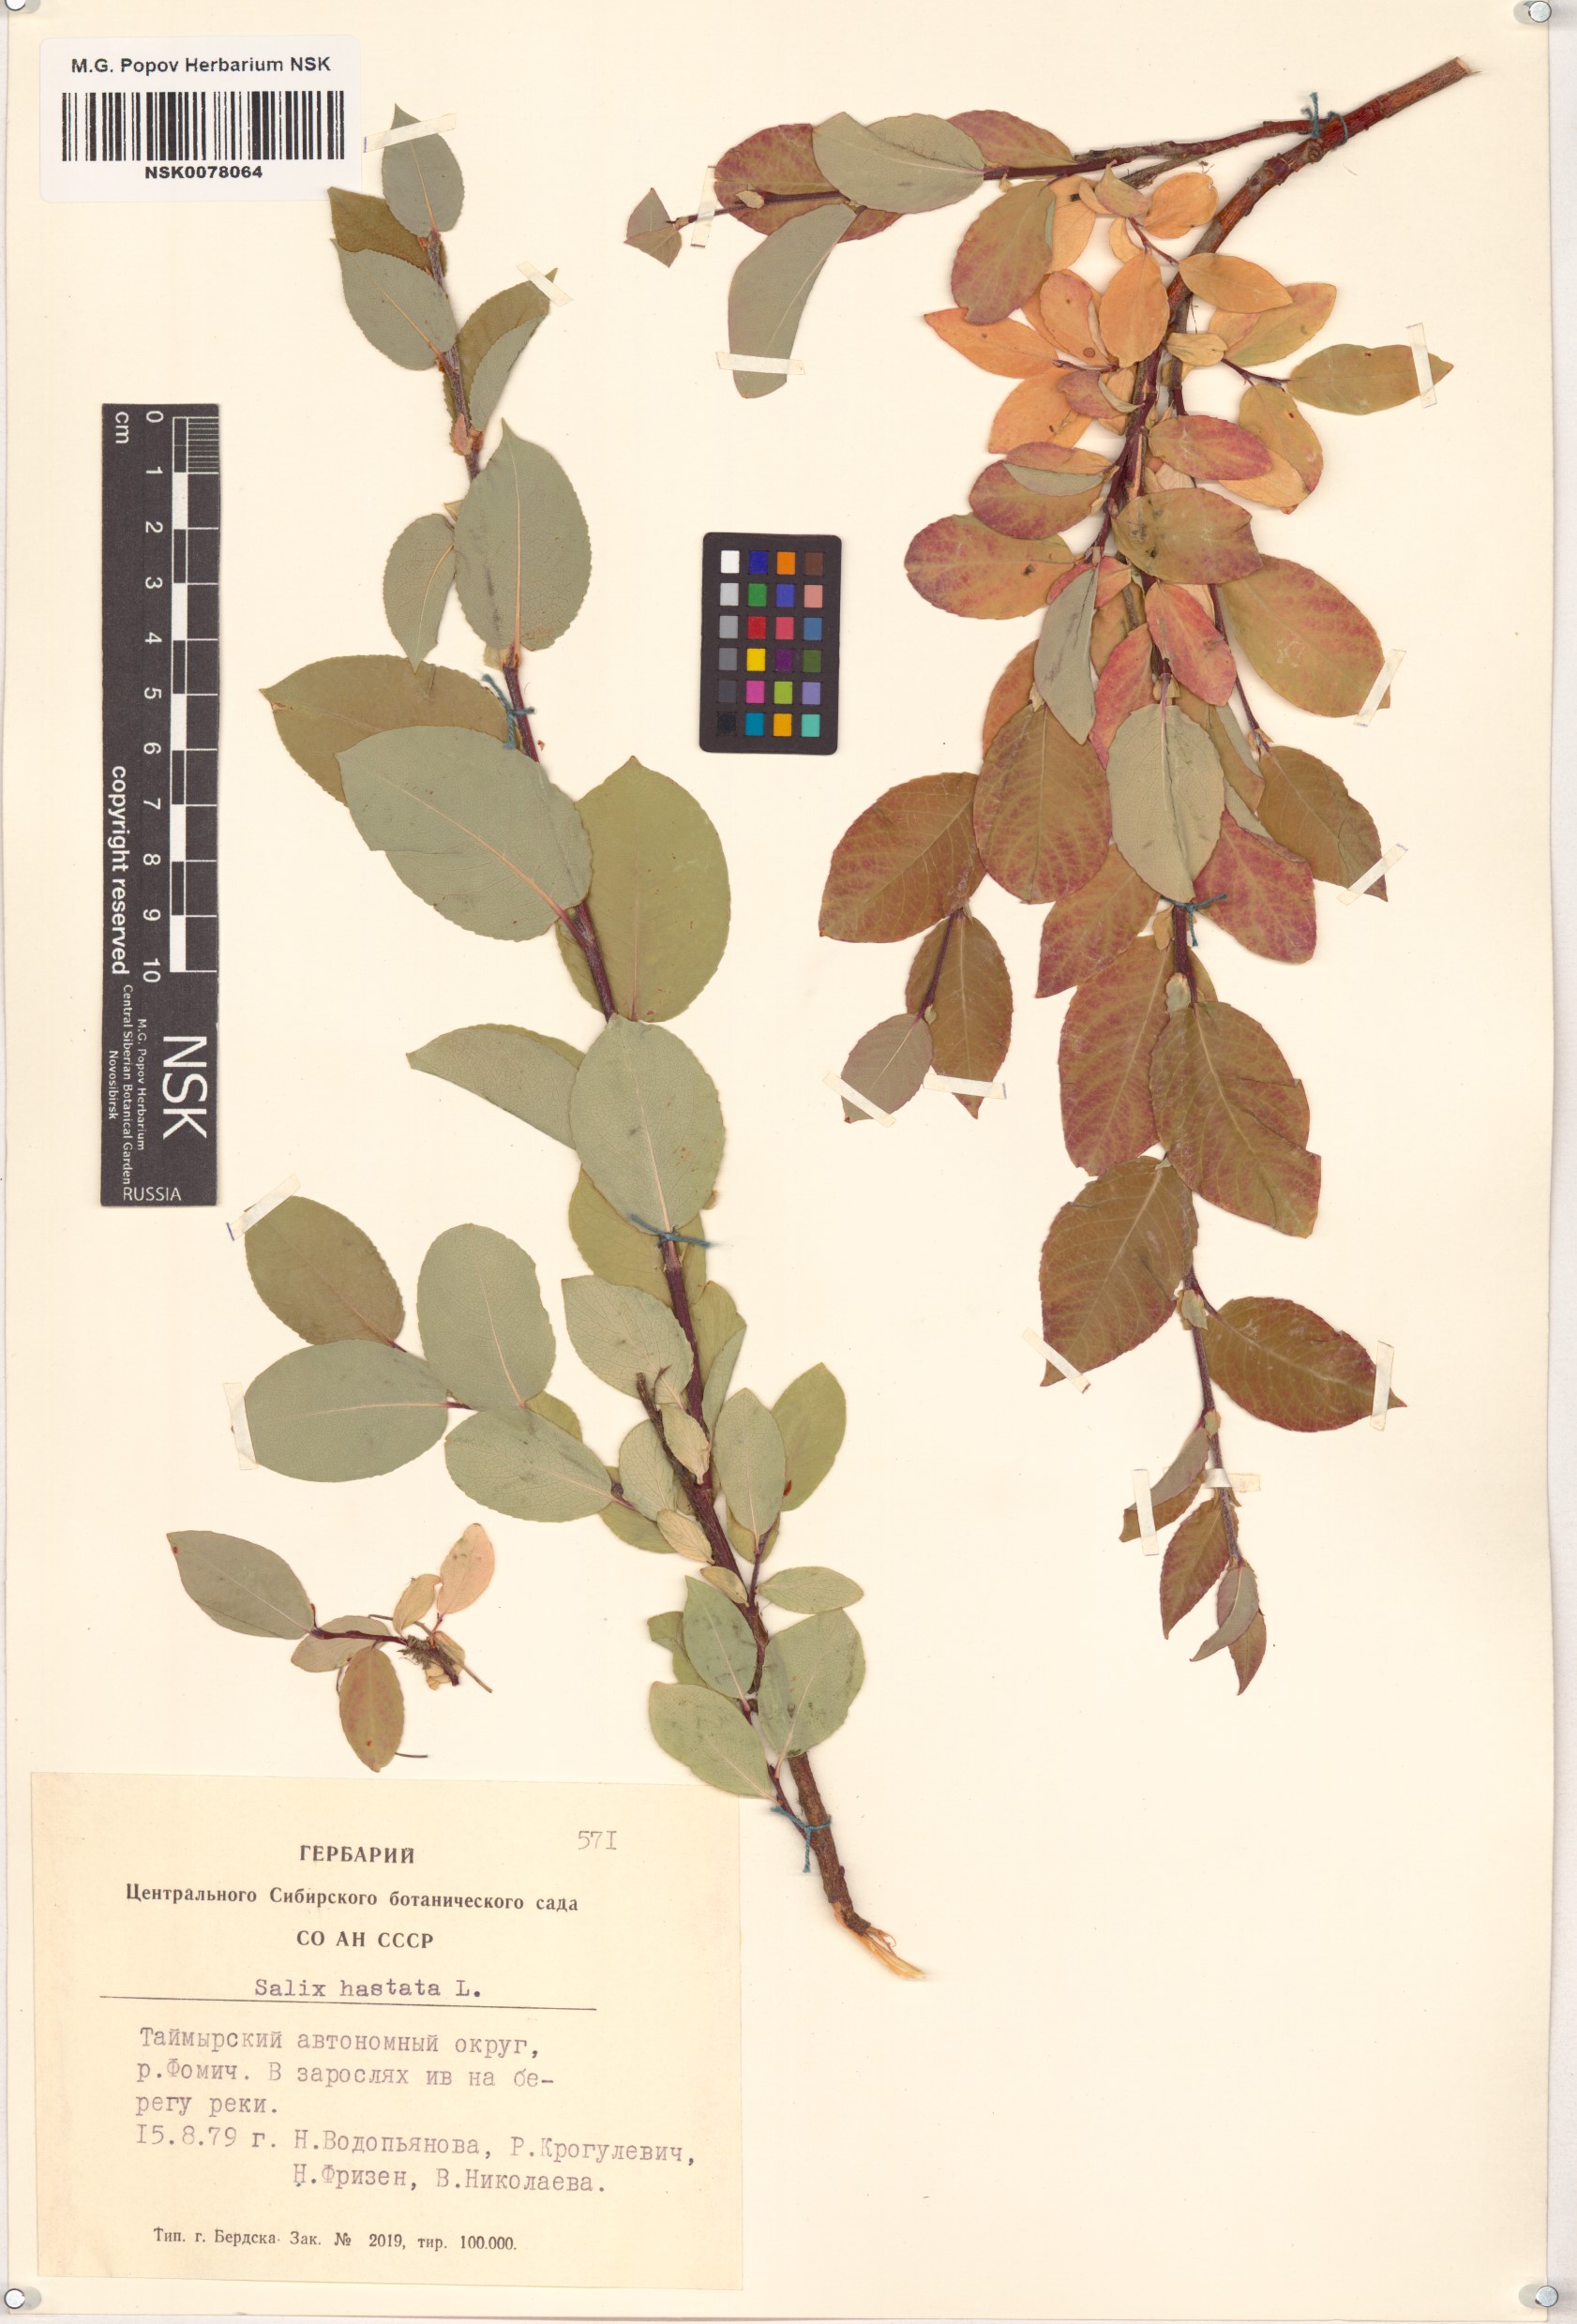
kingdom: Plantae
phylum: Tracheophyta
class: Magnoliopsida
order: Malpighiales
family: Salicaceae
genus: Salix
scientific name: Salix hastata
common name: Halberd willow
